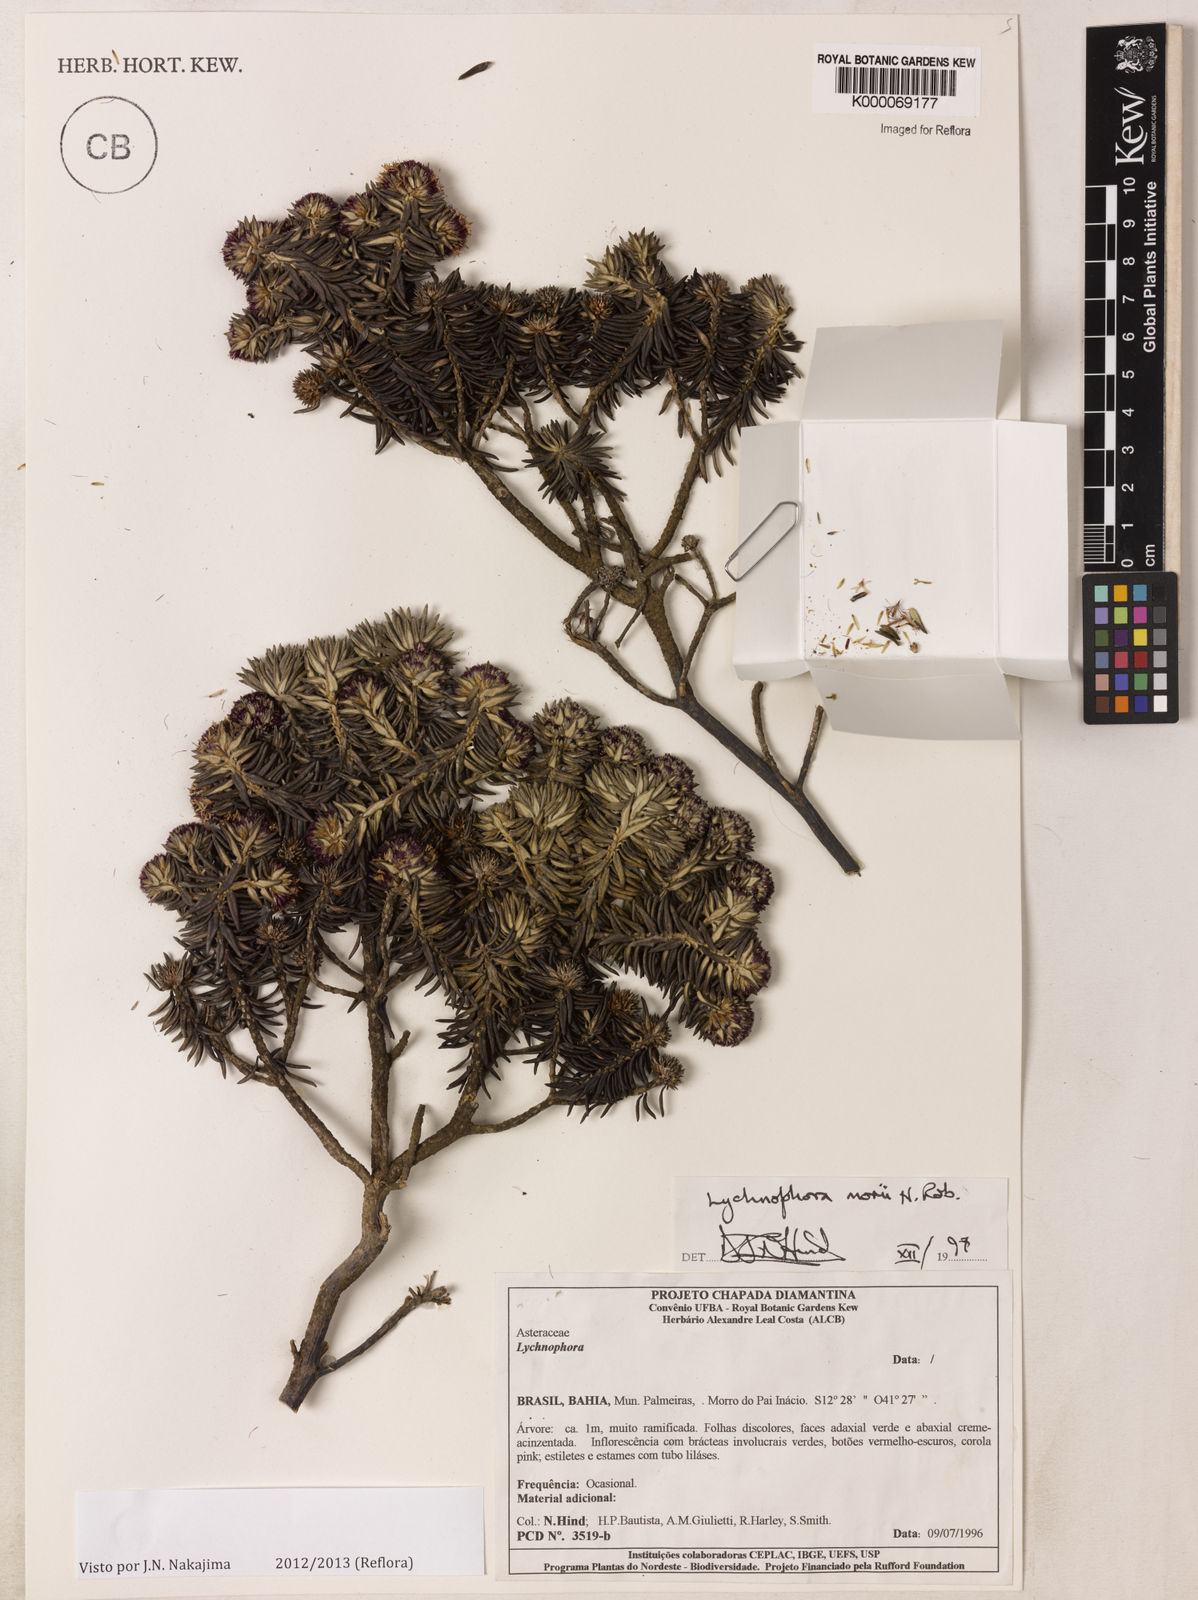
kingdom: Plantae
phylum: Tracheophyta
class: Magnoliopsida
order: Asterales
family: Asteraceae
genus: Lychnophorella
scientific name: Lychnophorella morii
